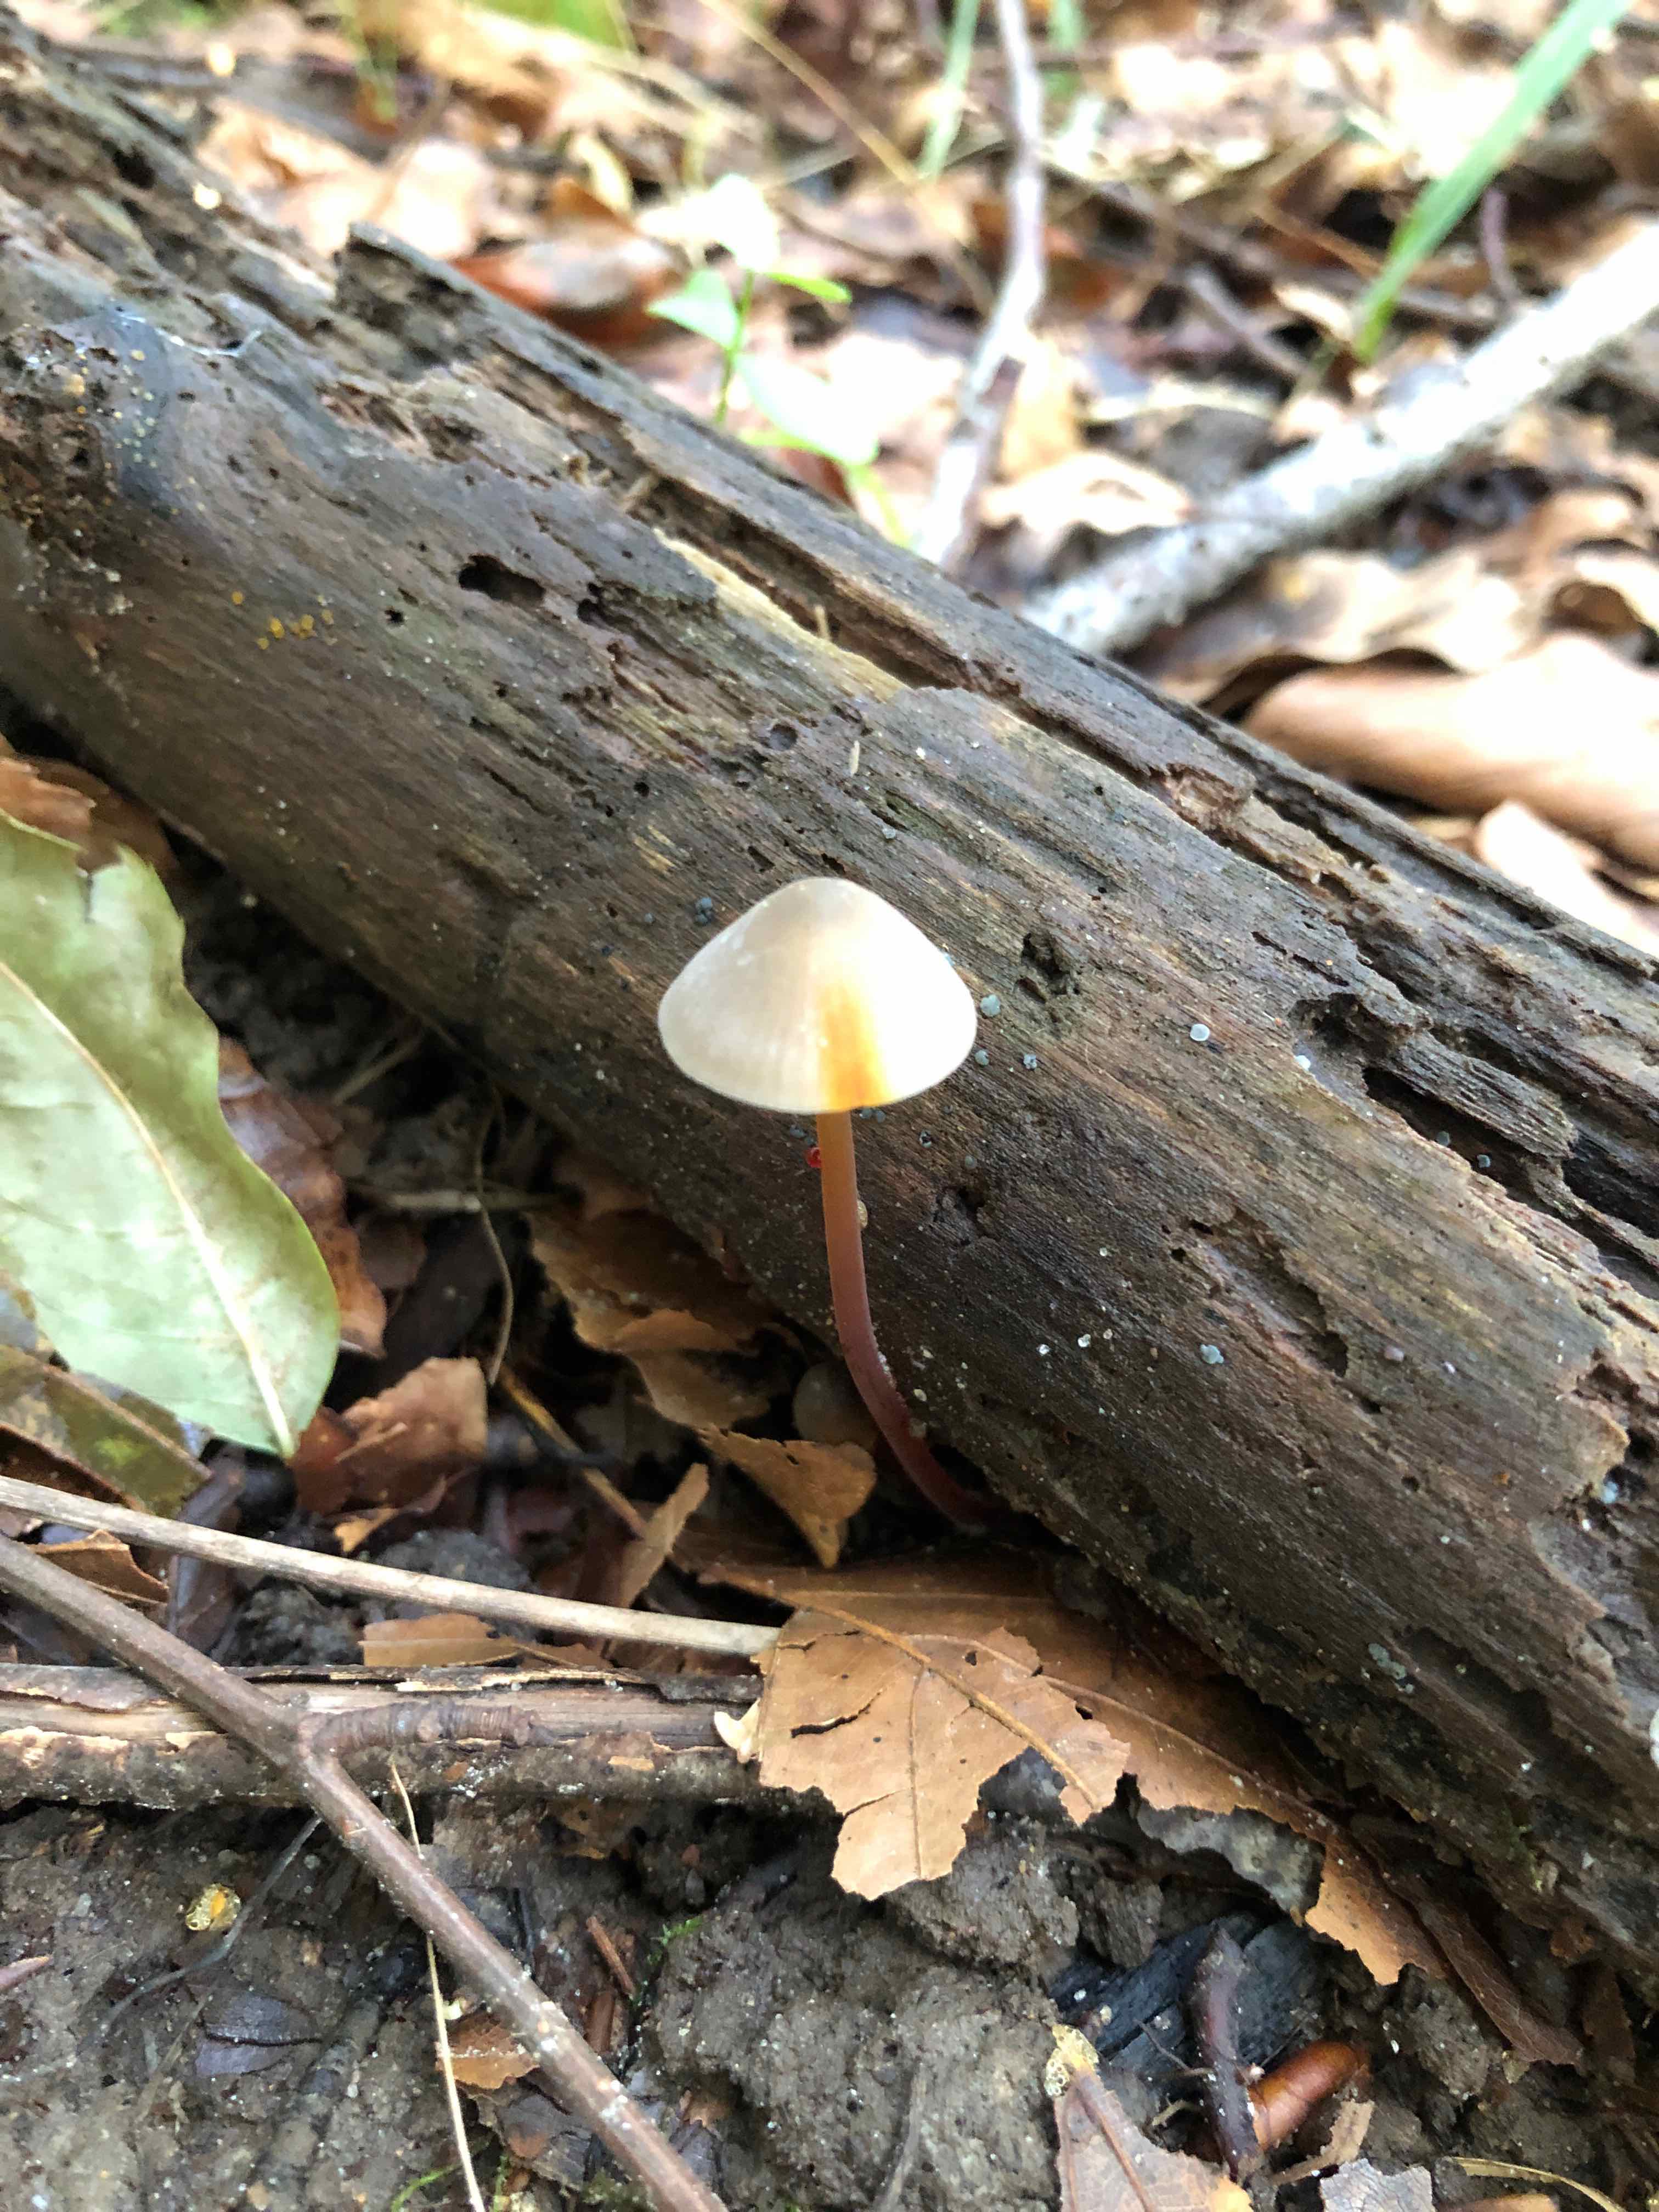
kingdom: Fungi
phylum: Basidiomycota
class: Agaricomycetes
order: Agaricales
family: Mycenaceae
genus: Mycena
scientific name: Mycena crocata
